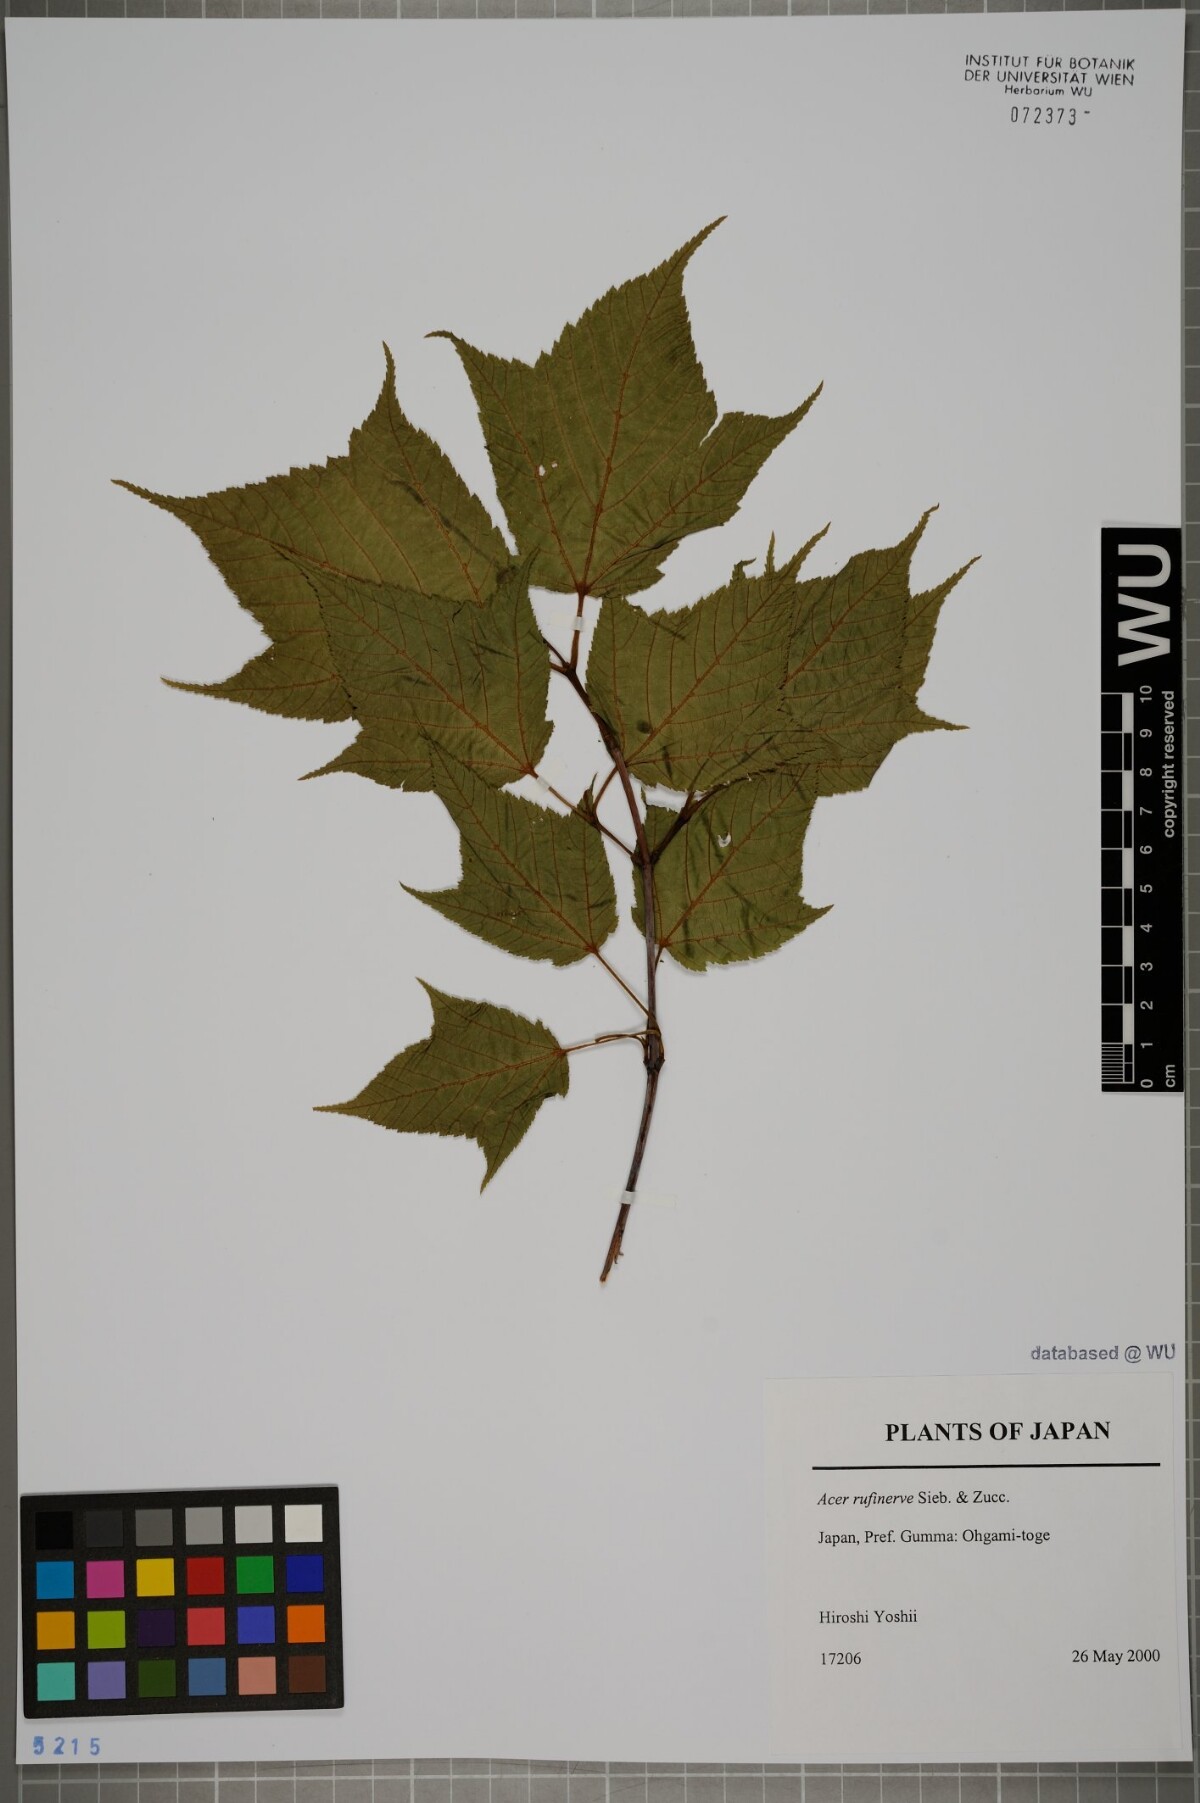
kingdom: Plantae
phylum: Tracheophyta
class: Magnoliopsida
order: Sapindales
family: Sapindaceae
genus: Acer
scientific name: Acer rufinerve
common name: Red veined maple
